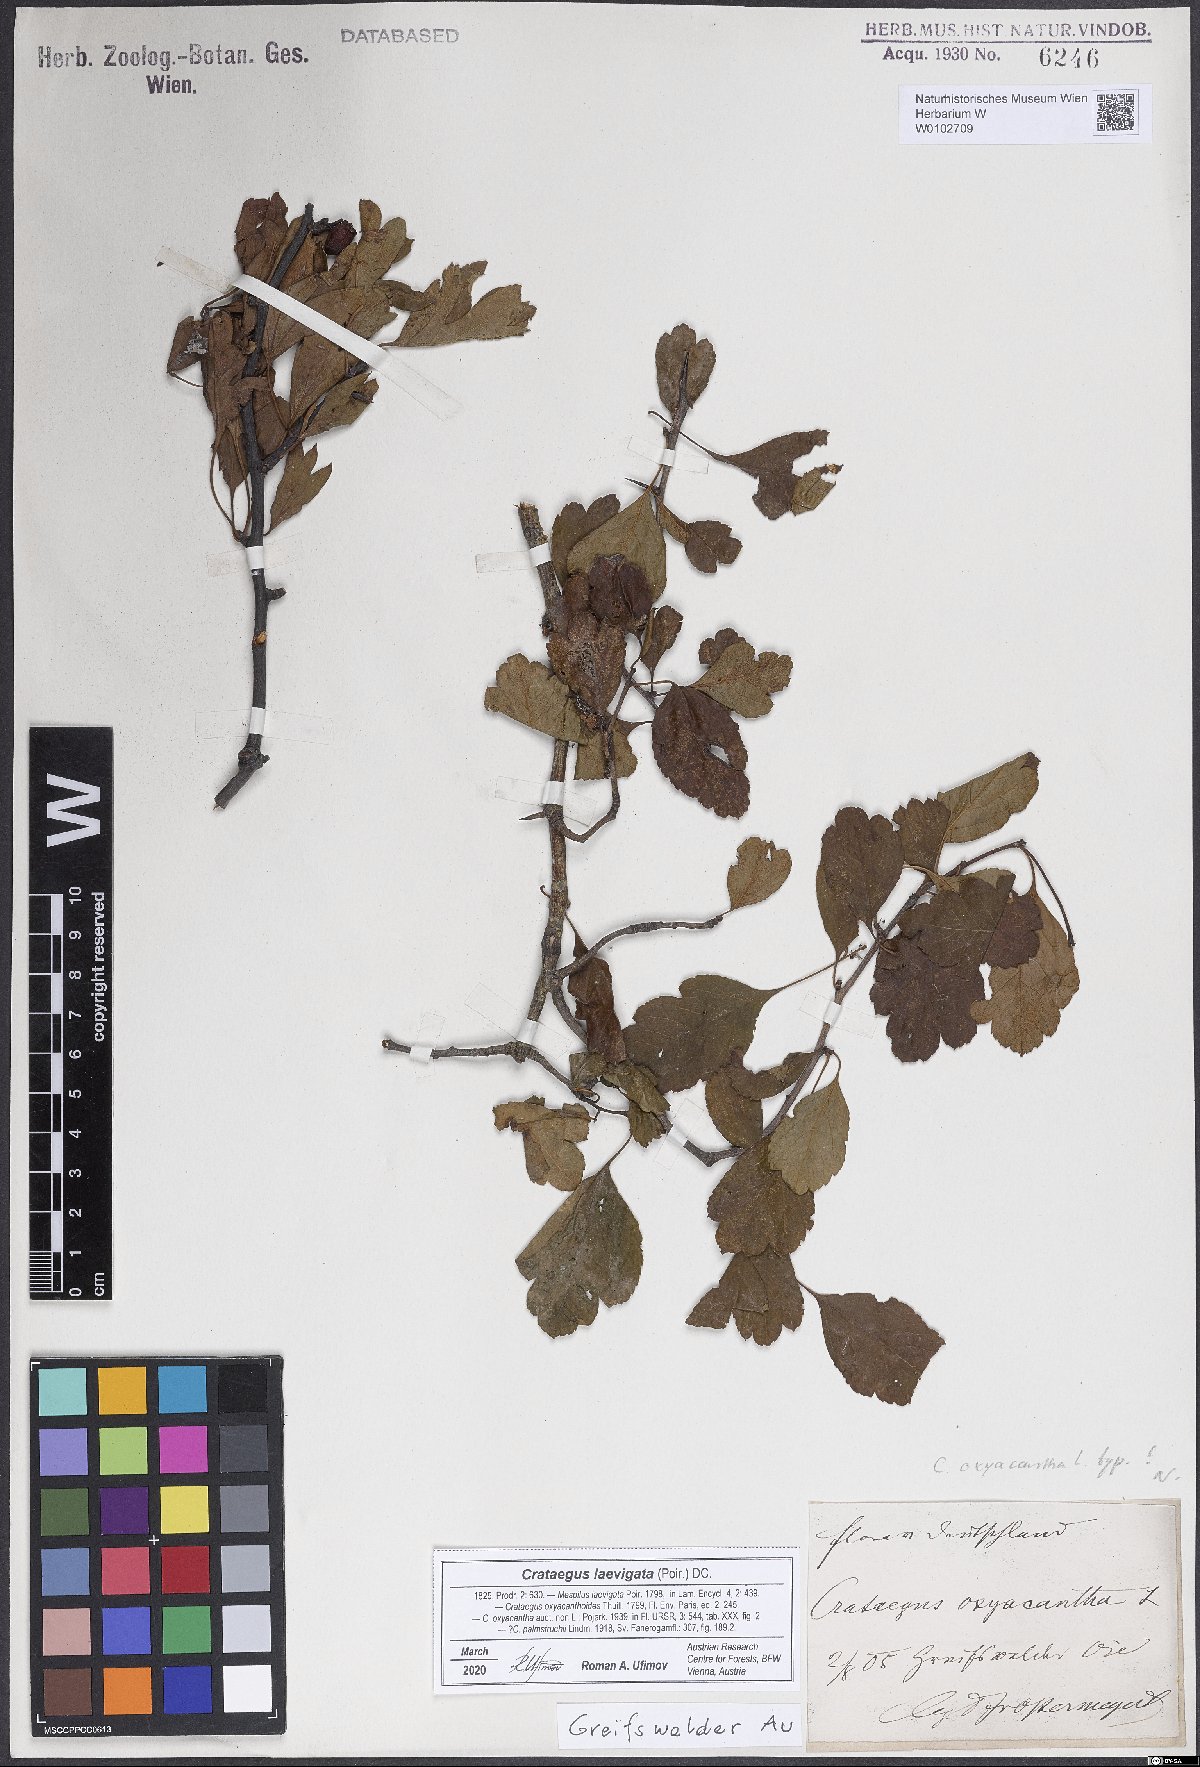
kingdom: Plantae
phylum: Tracheophyta
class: Magnoliopsida
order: Rosales
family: Rosaceae
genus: Crataegus
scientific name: Crataegus laevigata
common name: Midland hawthorn
